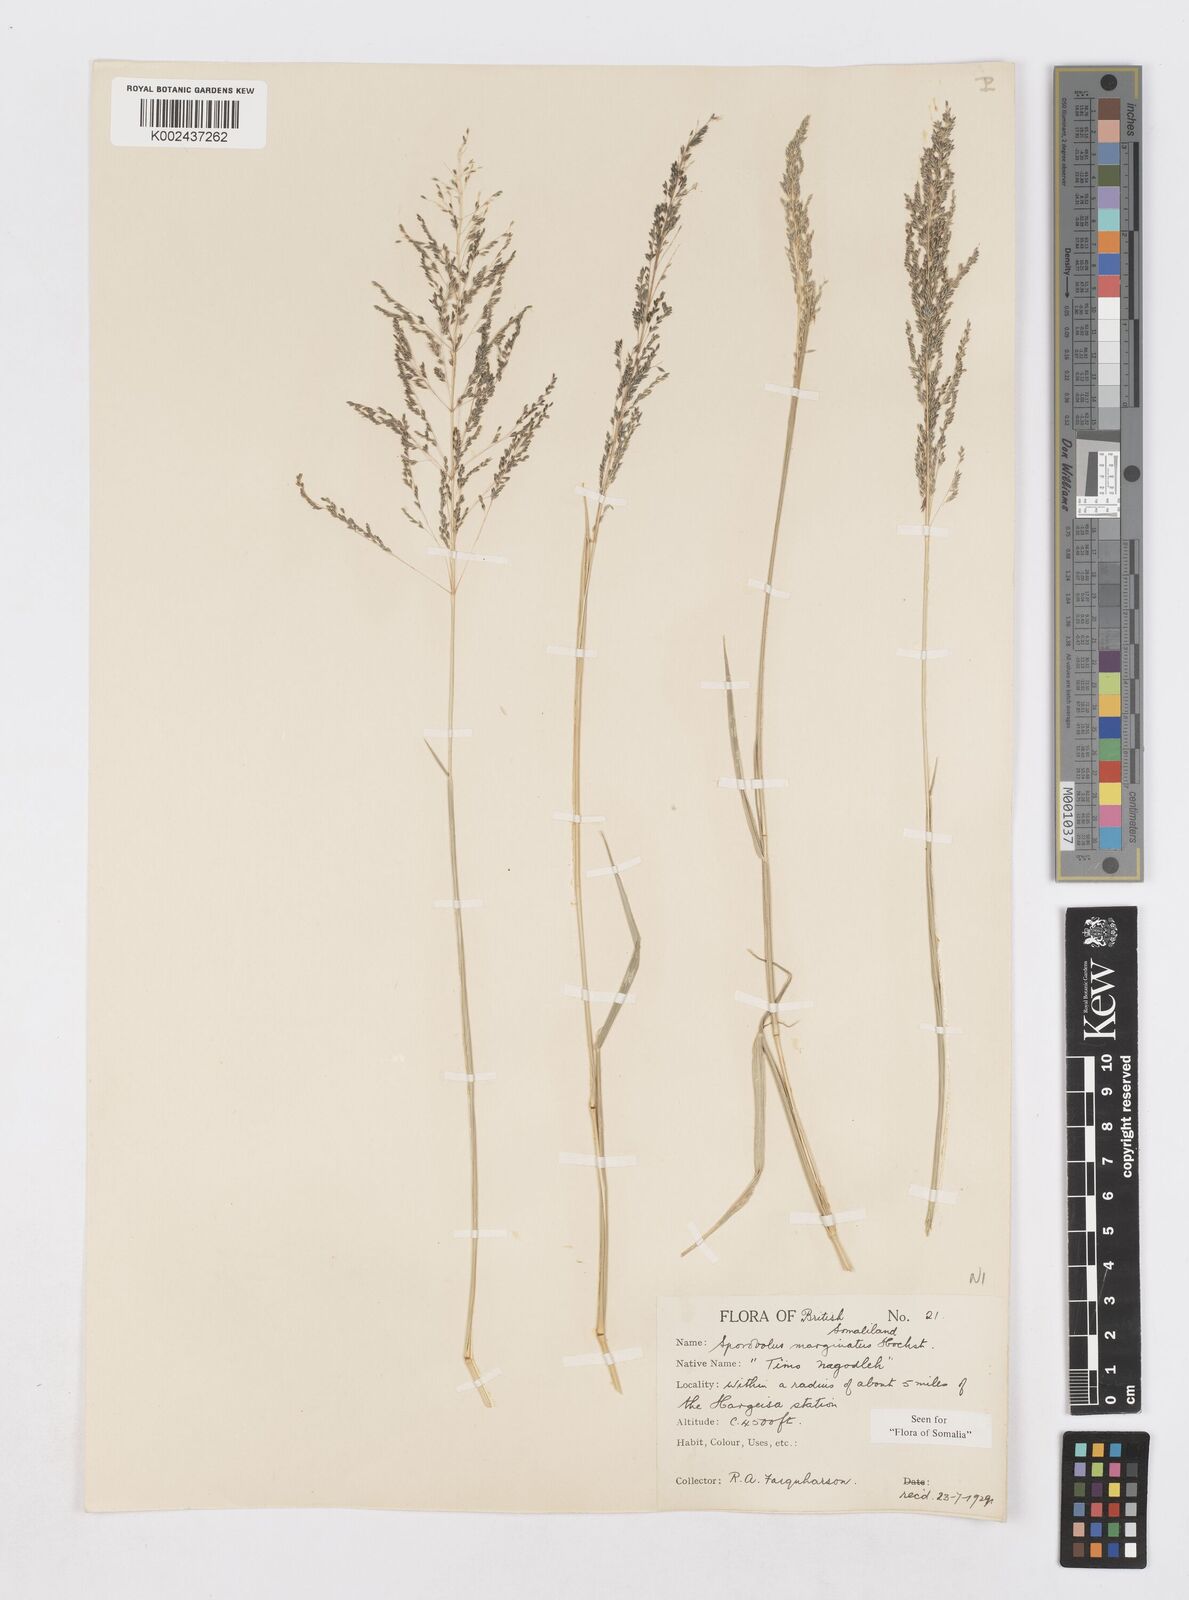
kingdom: Plantae
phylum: Tracheophyta
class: Liliopsida
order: Poales
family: Poaceae
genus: Sporobolus
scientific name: Sporobolus ioclados
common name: Pan dropseed
